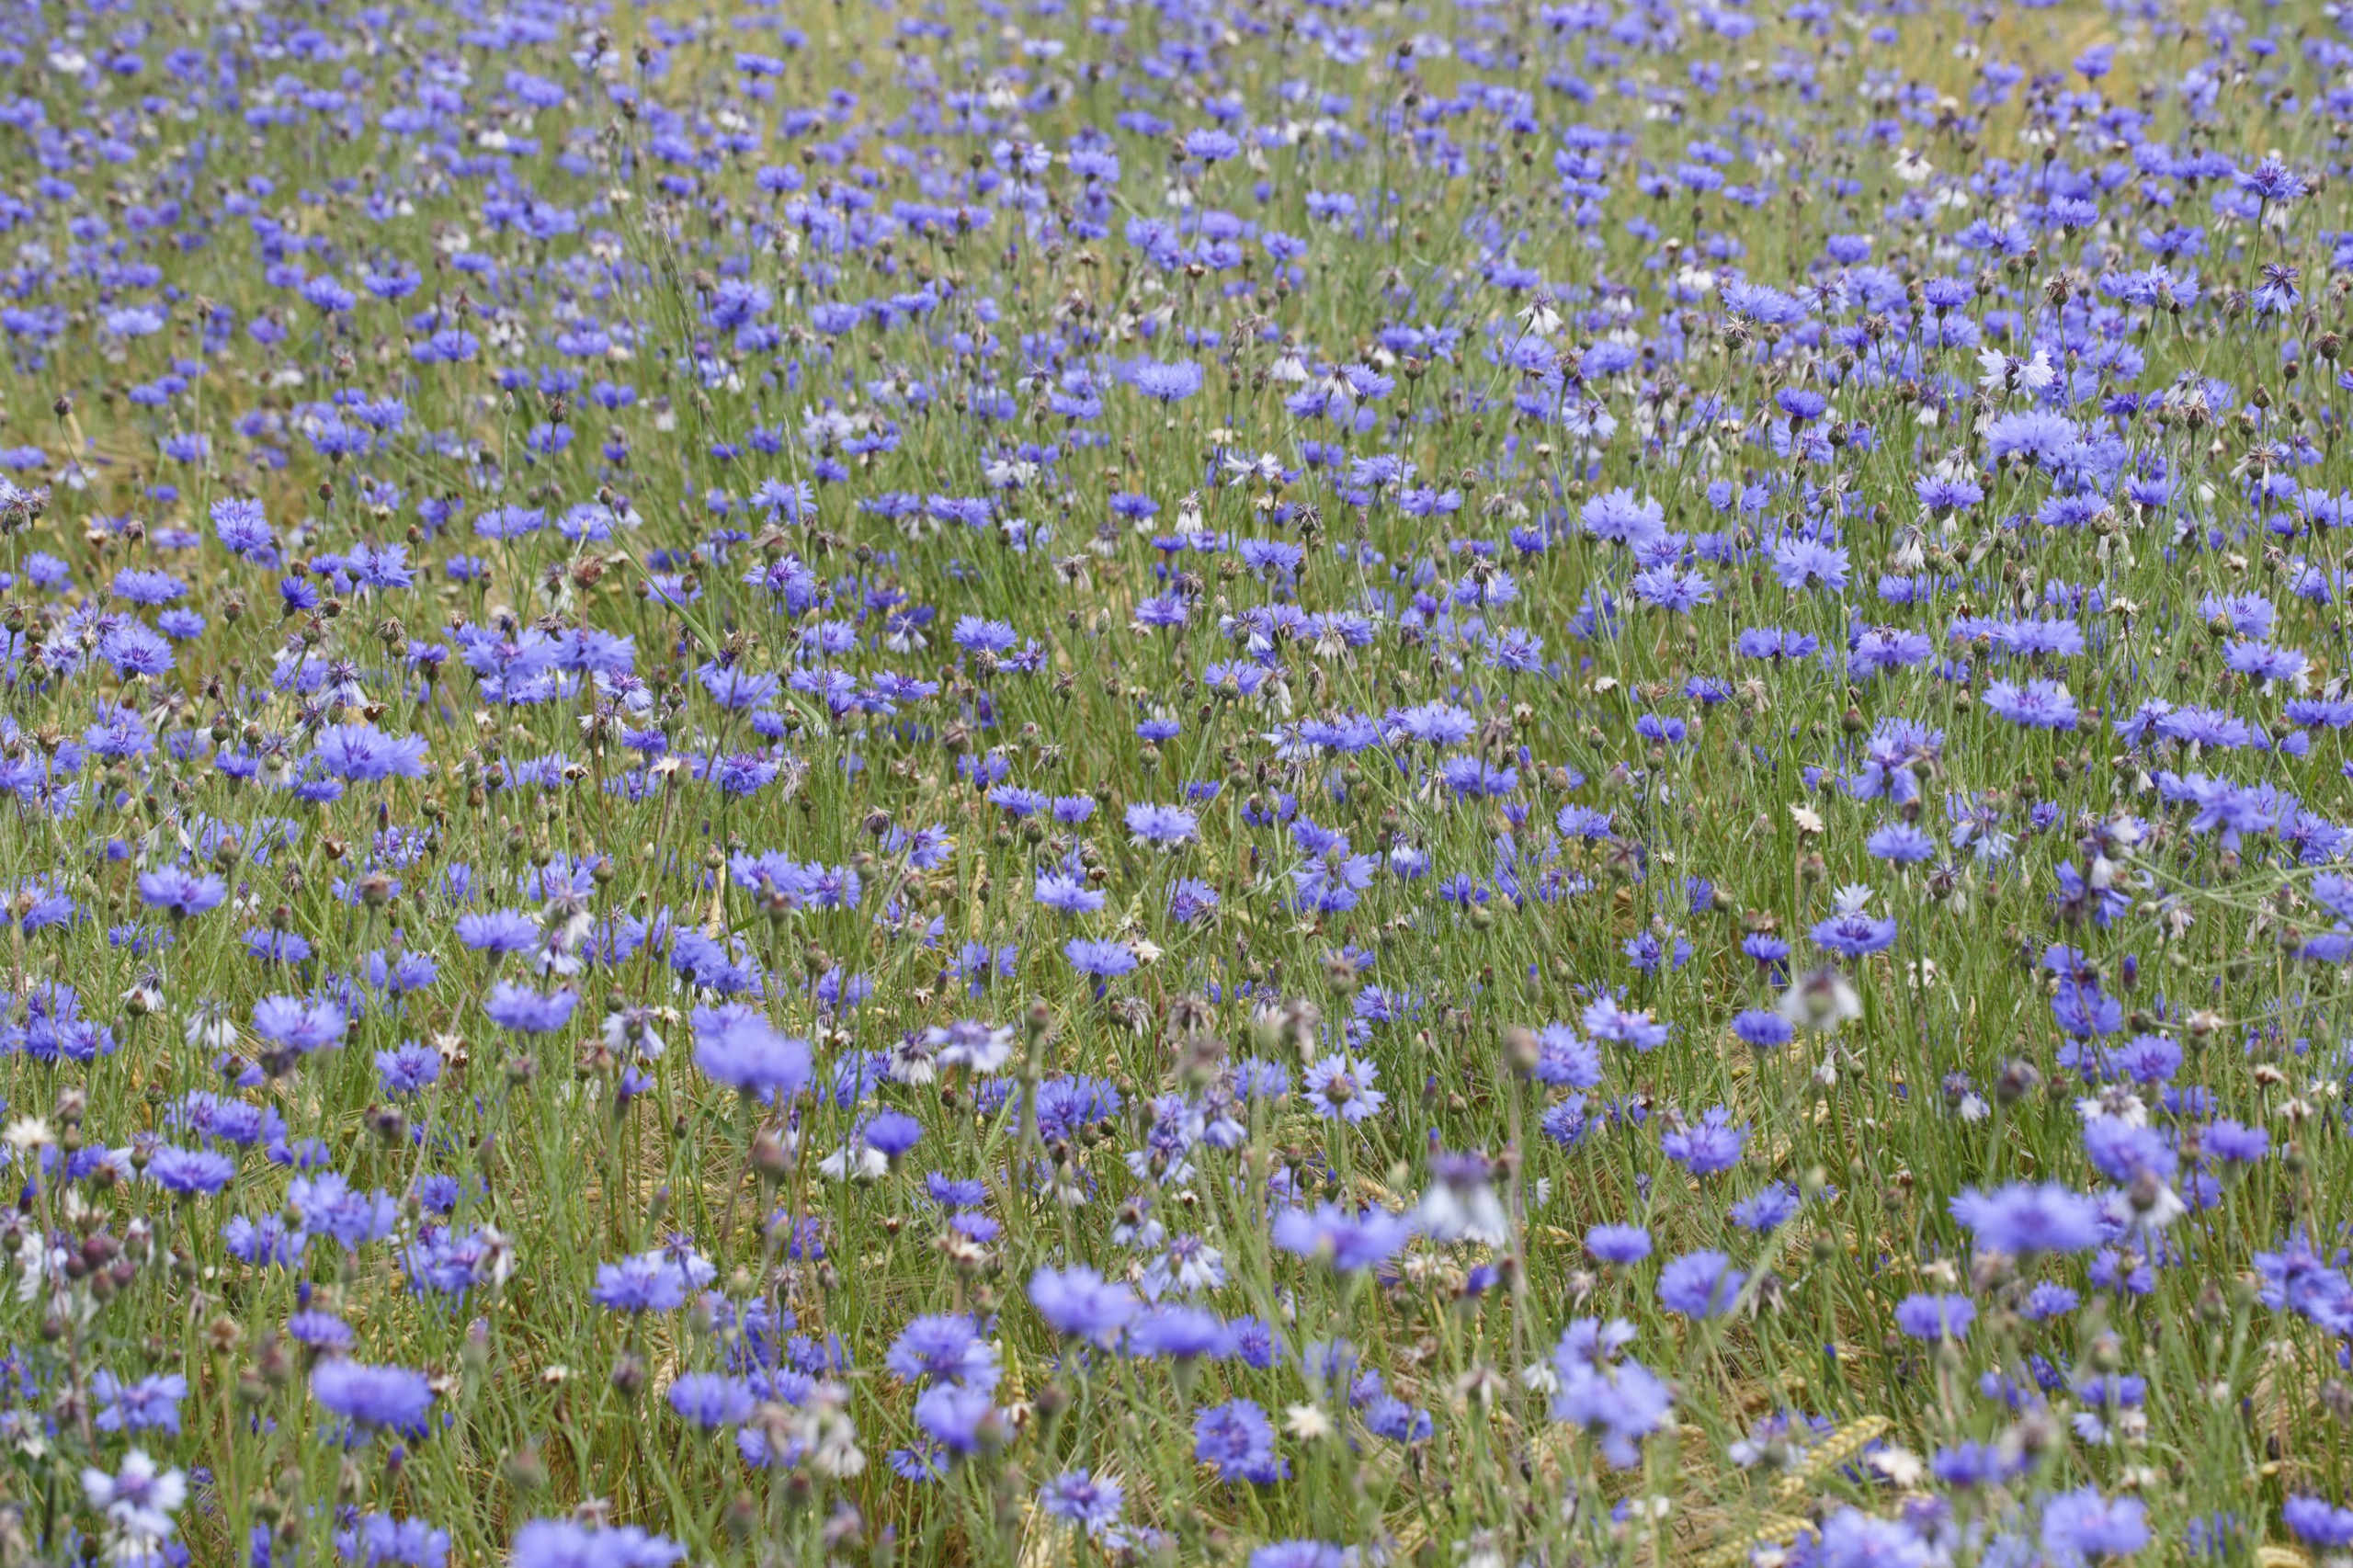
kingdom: Plantae
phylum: Tracheophyta
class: Magnoliopsida
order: Asterales
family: Asteraceae
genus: Centaurea
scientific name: Centaurea cyanus
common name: Kornblomst
